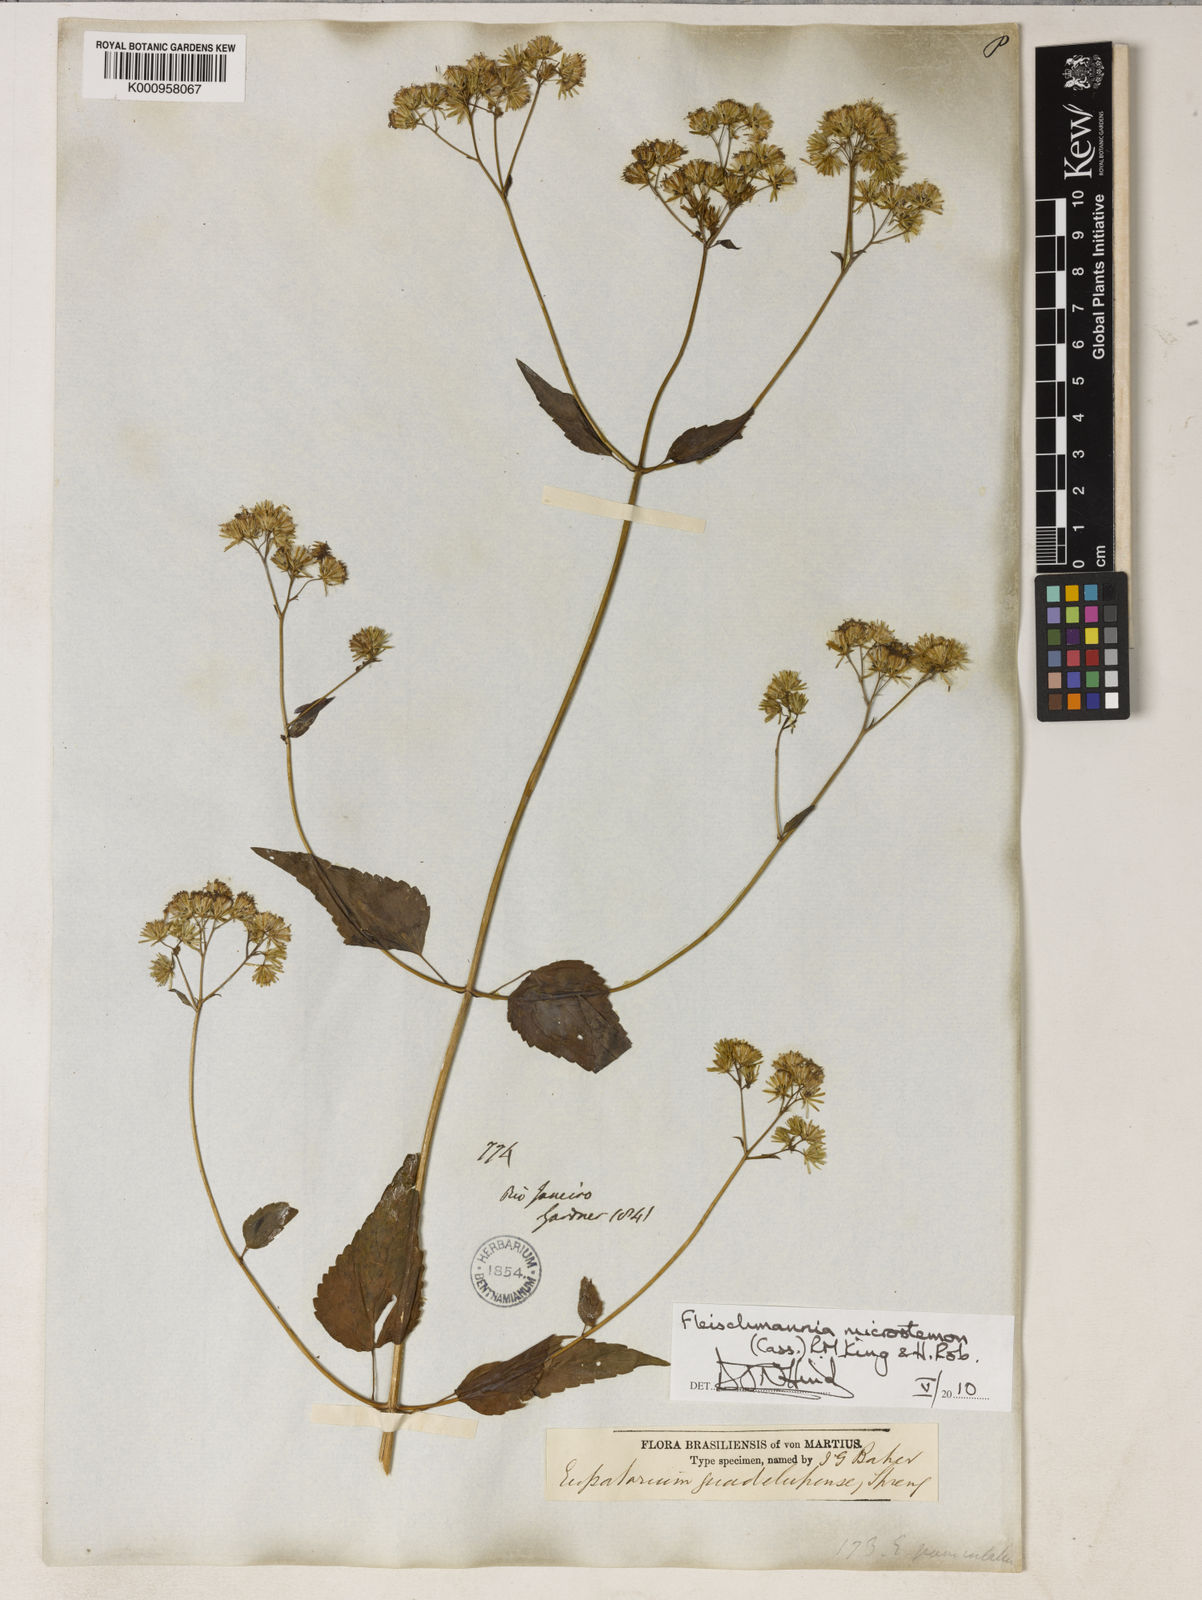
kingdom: Plantae
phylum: Tracheophyta
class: Magnoliopsida
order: Asterales
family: Asteraceae
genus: Fleischmannia
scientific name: Fleischmannia microstemon
